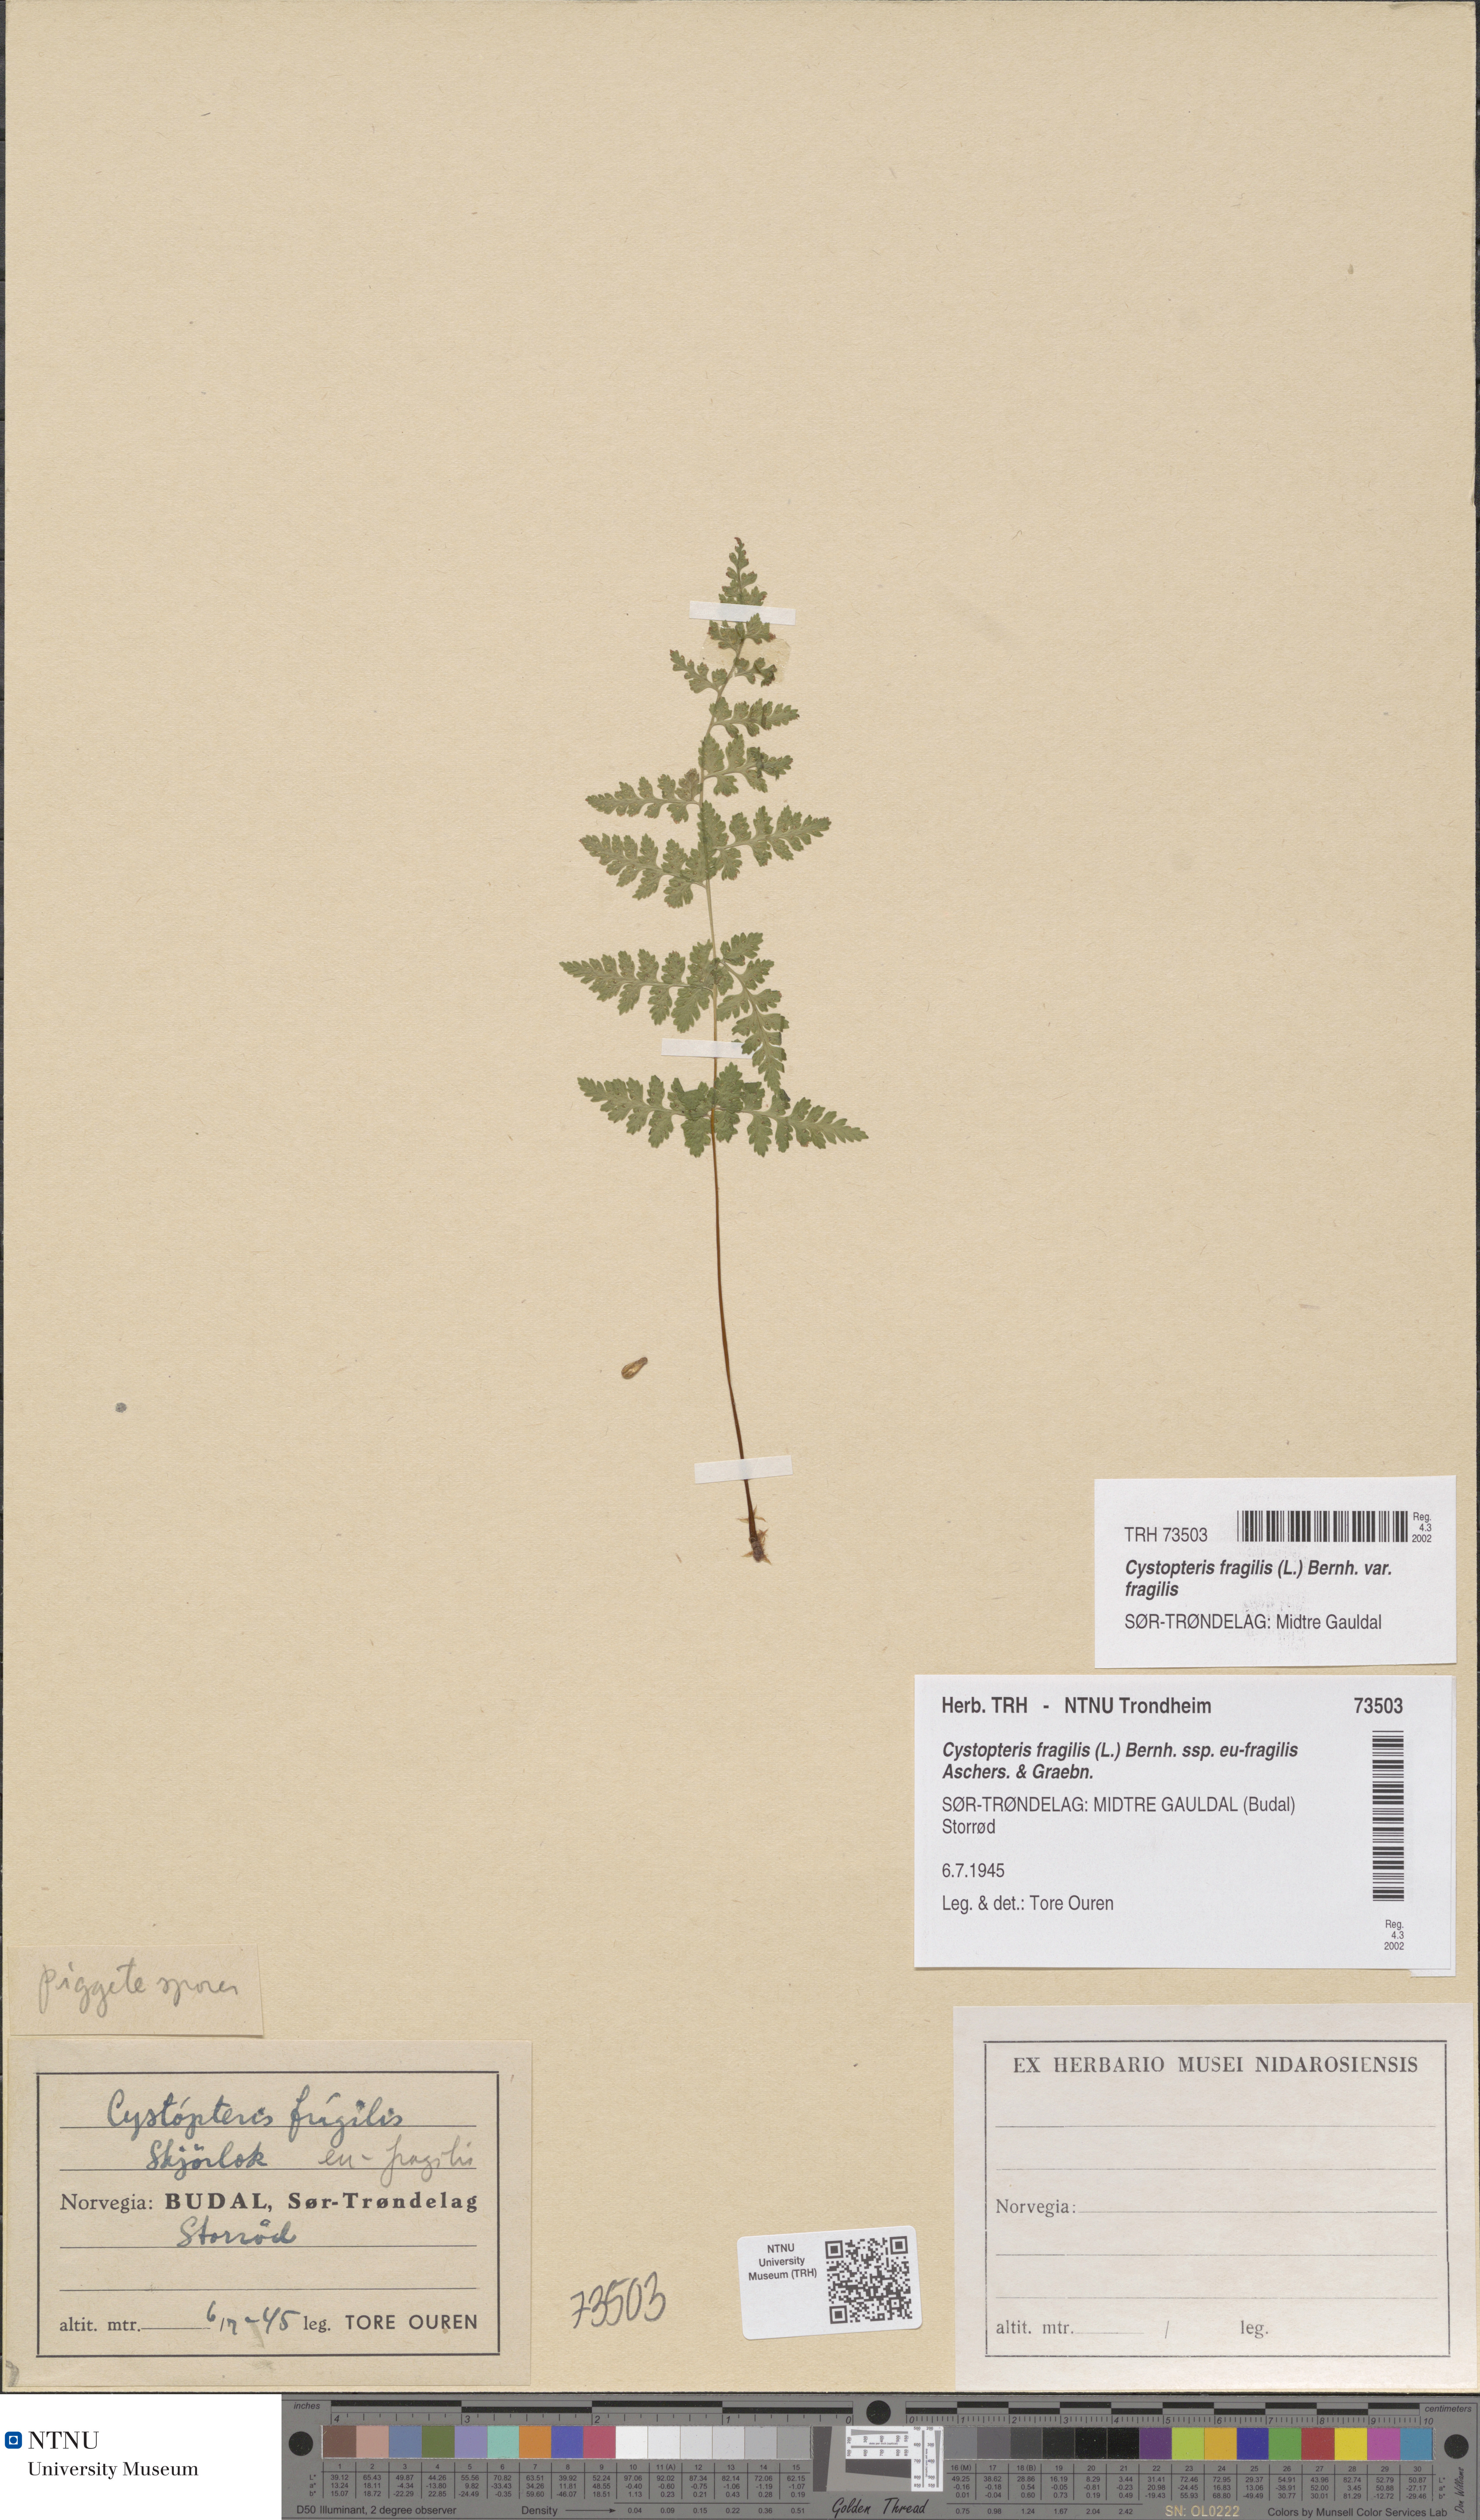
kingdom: Plantae
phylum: Tracheophyta
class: Polypodiopsida
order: Polypodiales
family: Cystopteridaceae
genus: Cystopteris
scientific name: Cystopteris fragilis
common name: Brittle bladder fern
